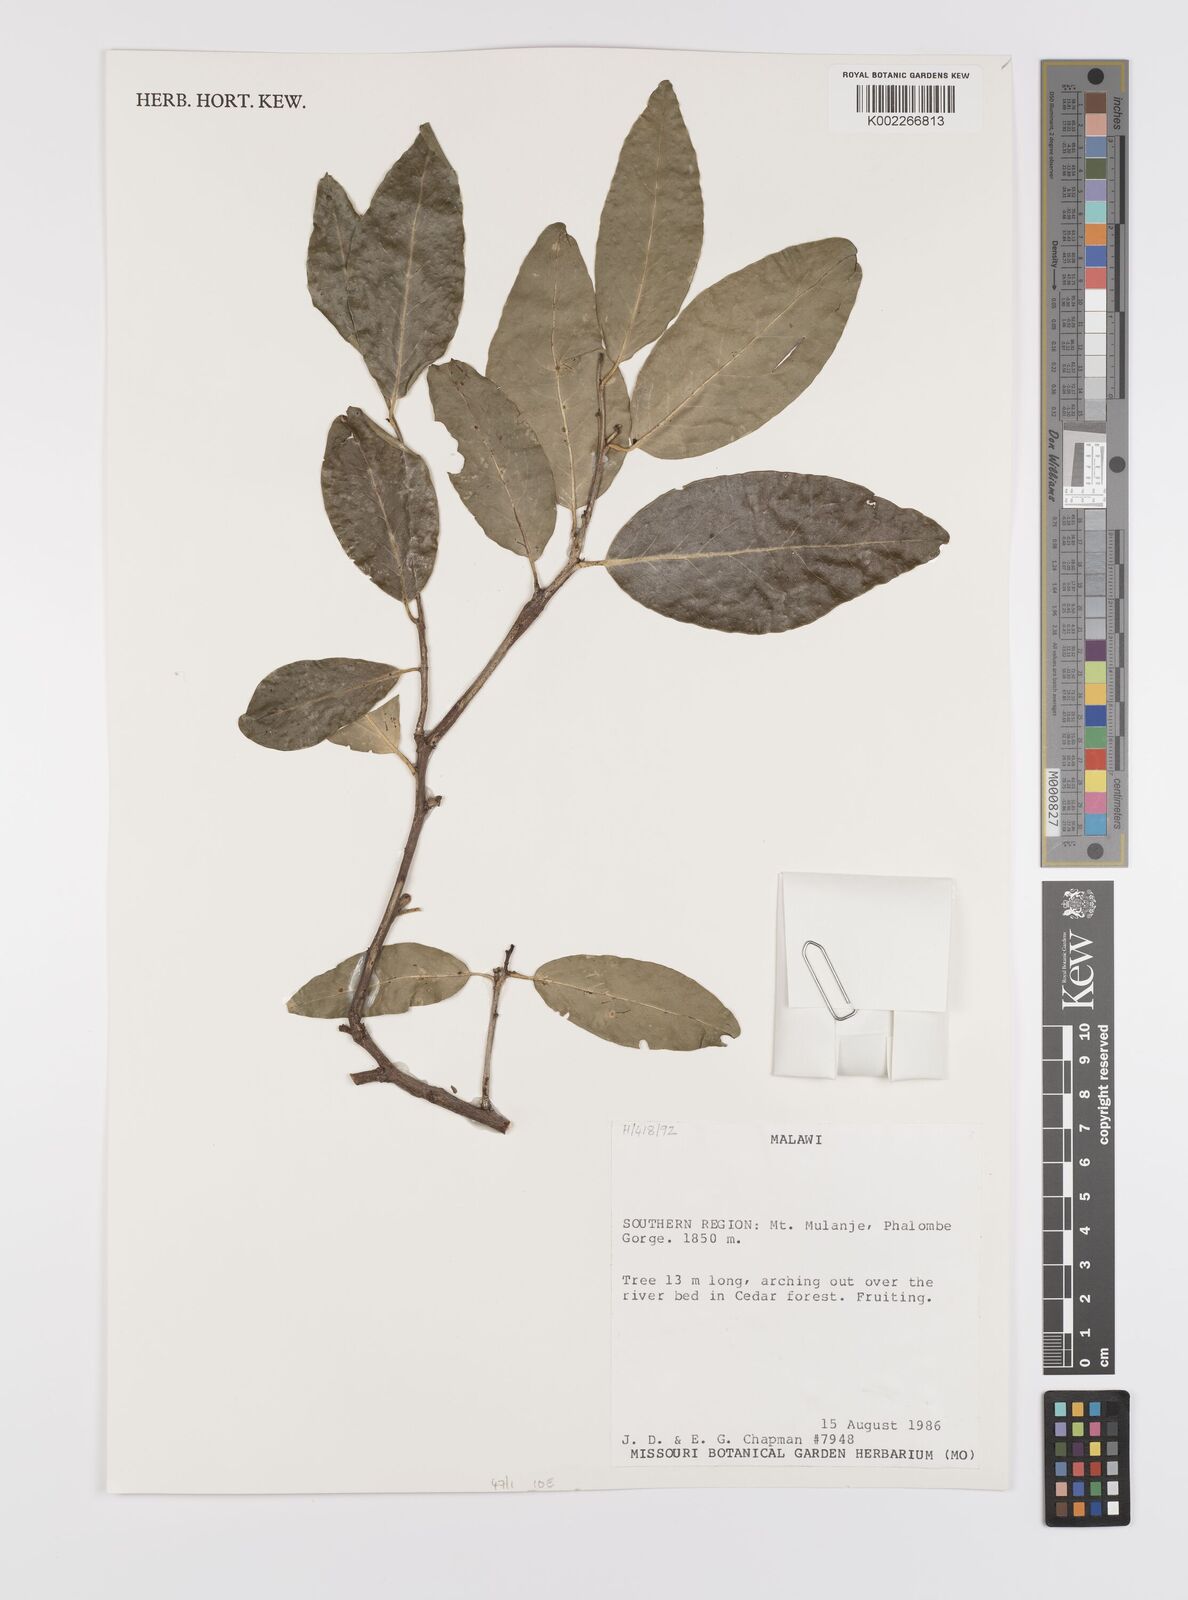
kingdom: Plantae
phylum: Tracheophyta
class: Magnoliopsida
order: Celastrales
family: Celastraceae
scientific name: Celastraceae
